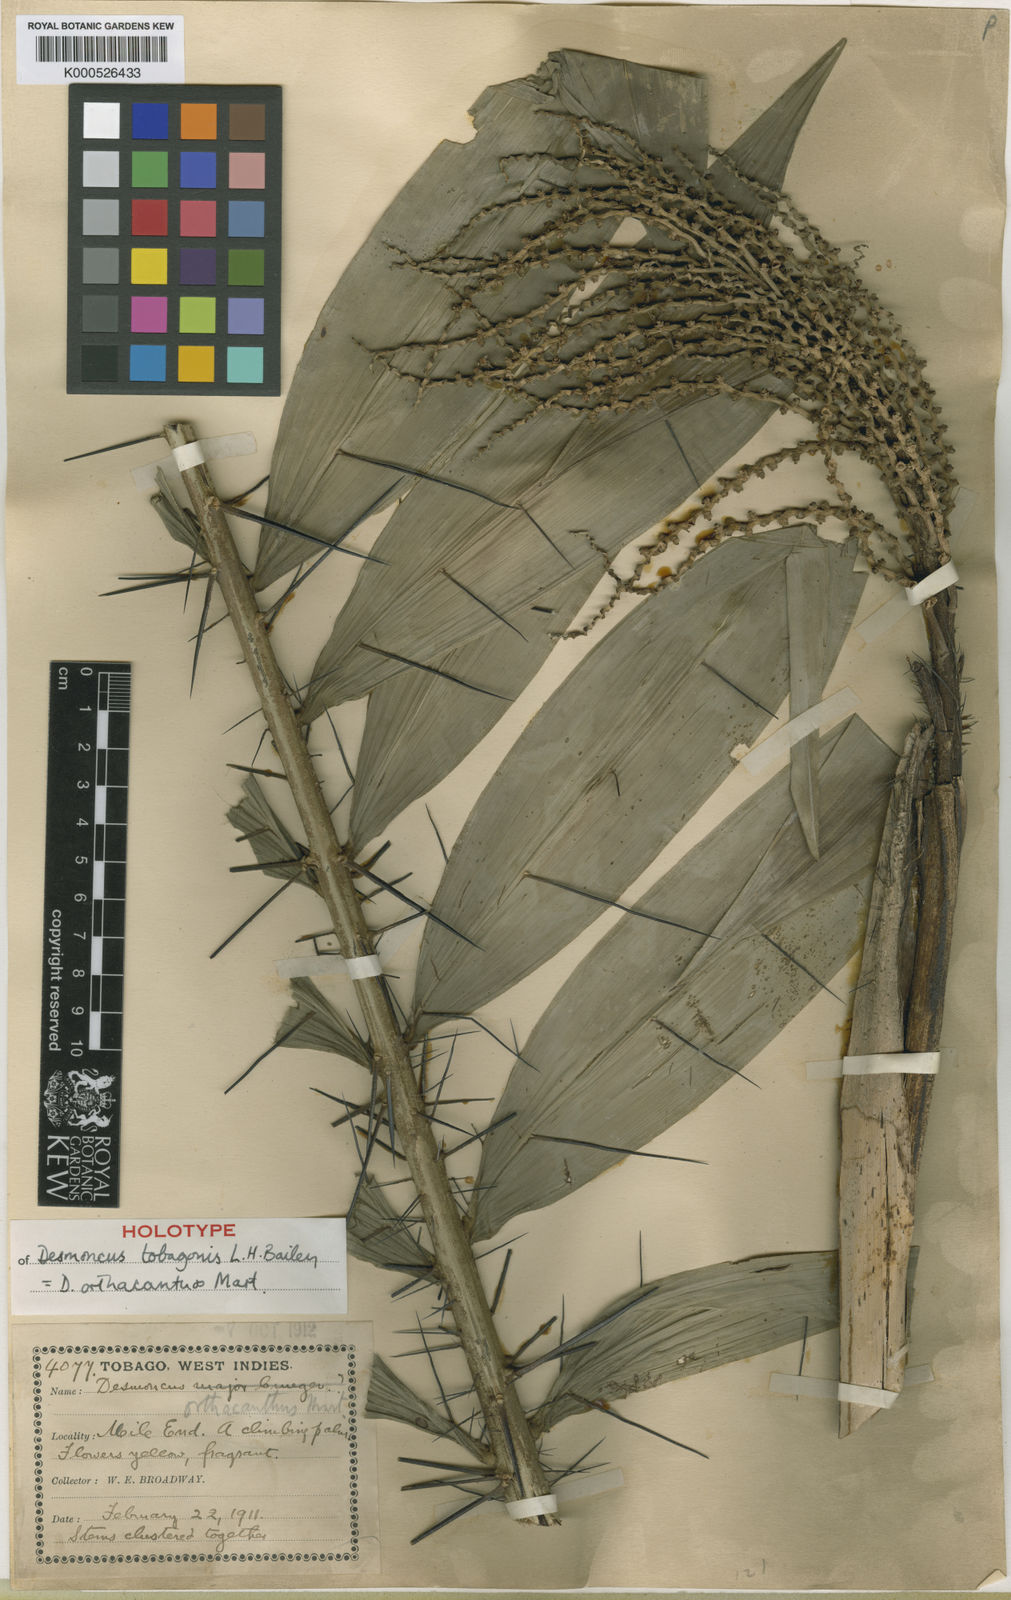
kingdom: Plantae
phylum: Tracheophyta
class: Liliopsida
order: Arecales
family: Arecaceae
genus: Desmoncus
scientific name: Desmoncus orthacanthos
